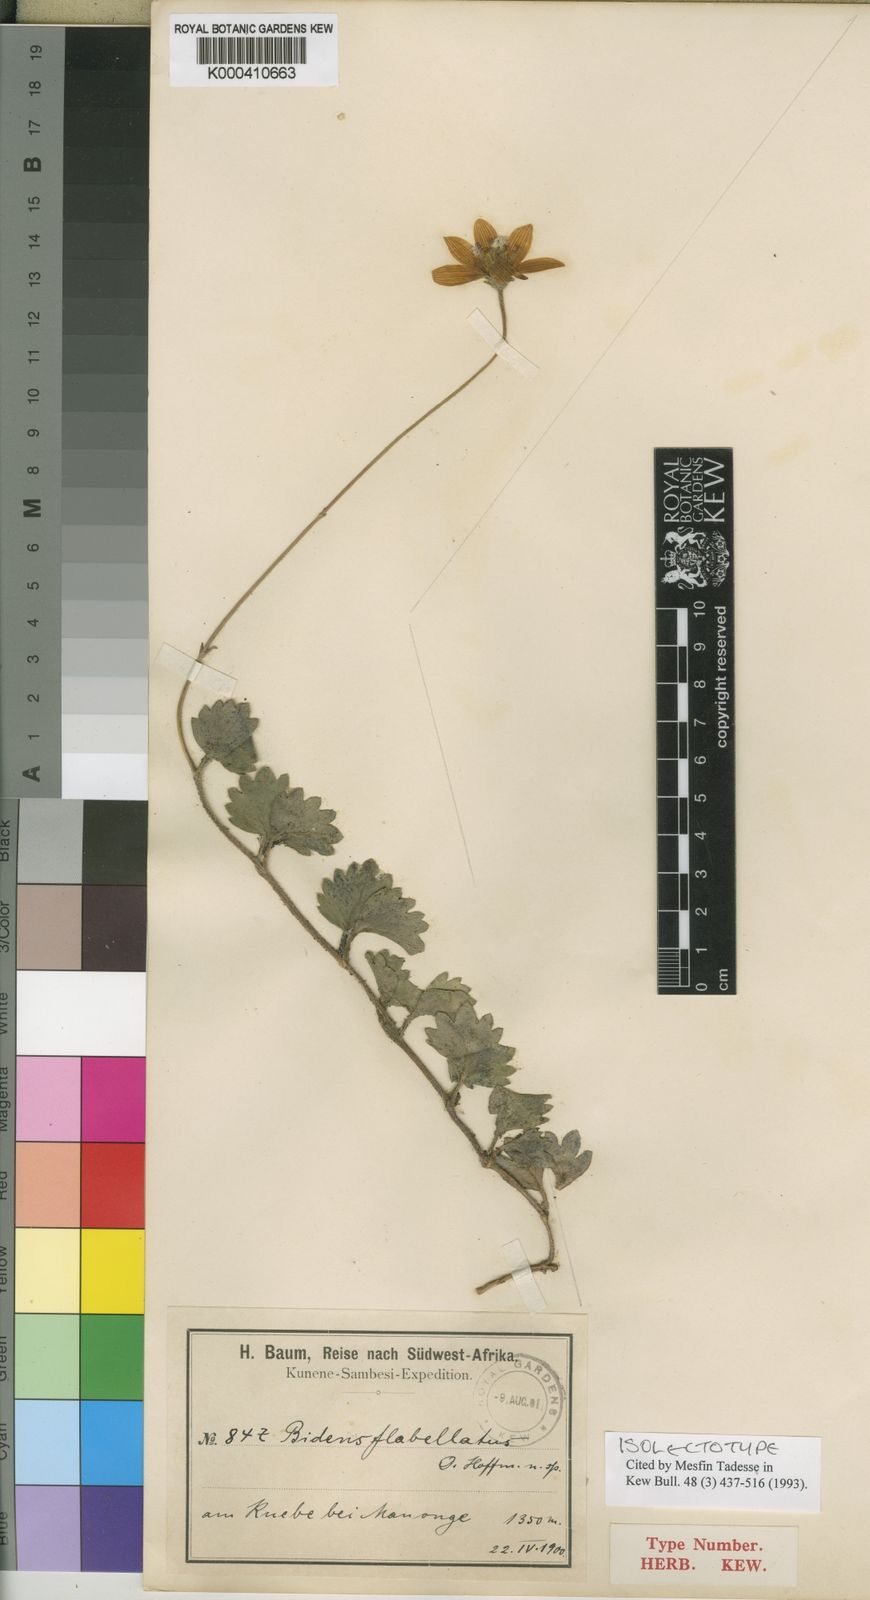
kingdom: Plantae
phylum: Tracheophyta
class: Magnoliopsida
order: Asterales
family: Asteraceae
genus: Bidens
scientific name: Bidens flabellata
